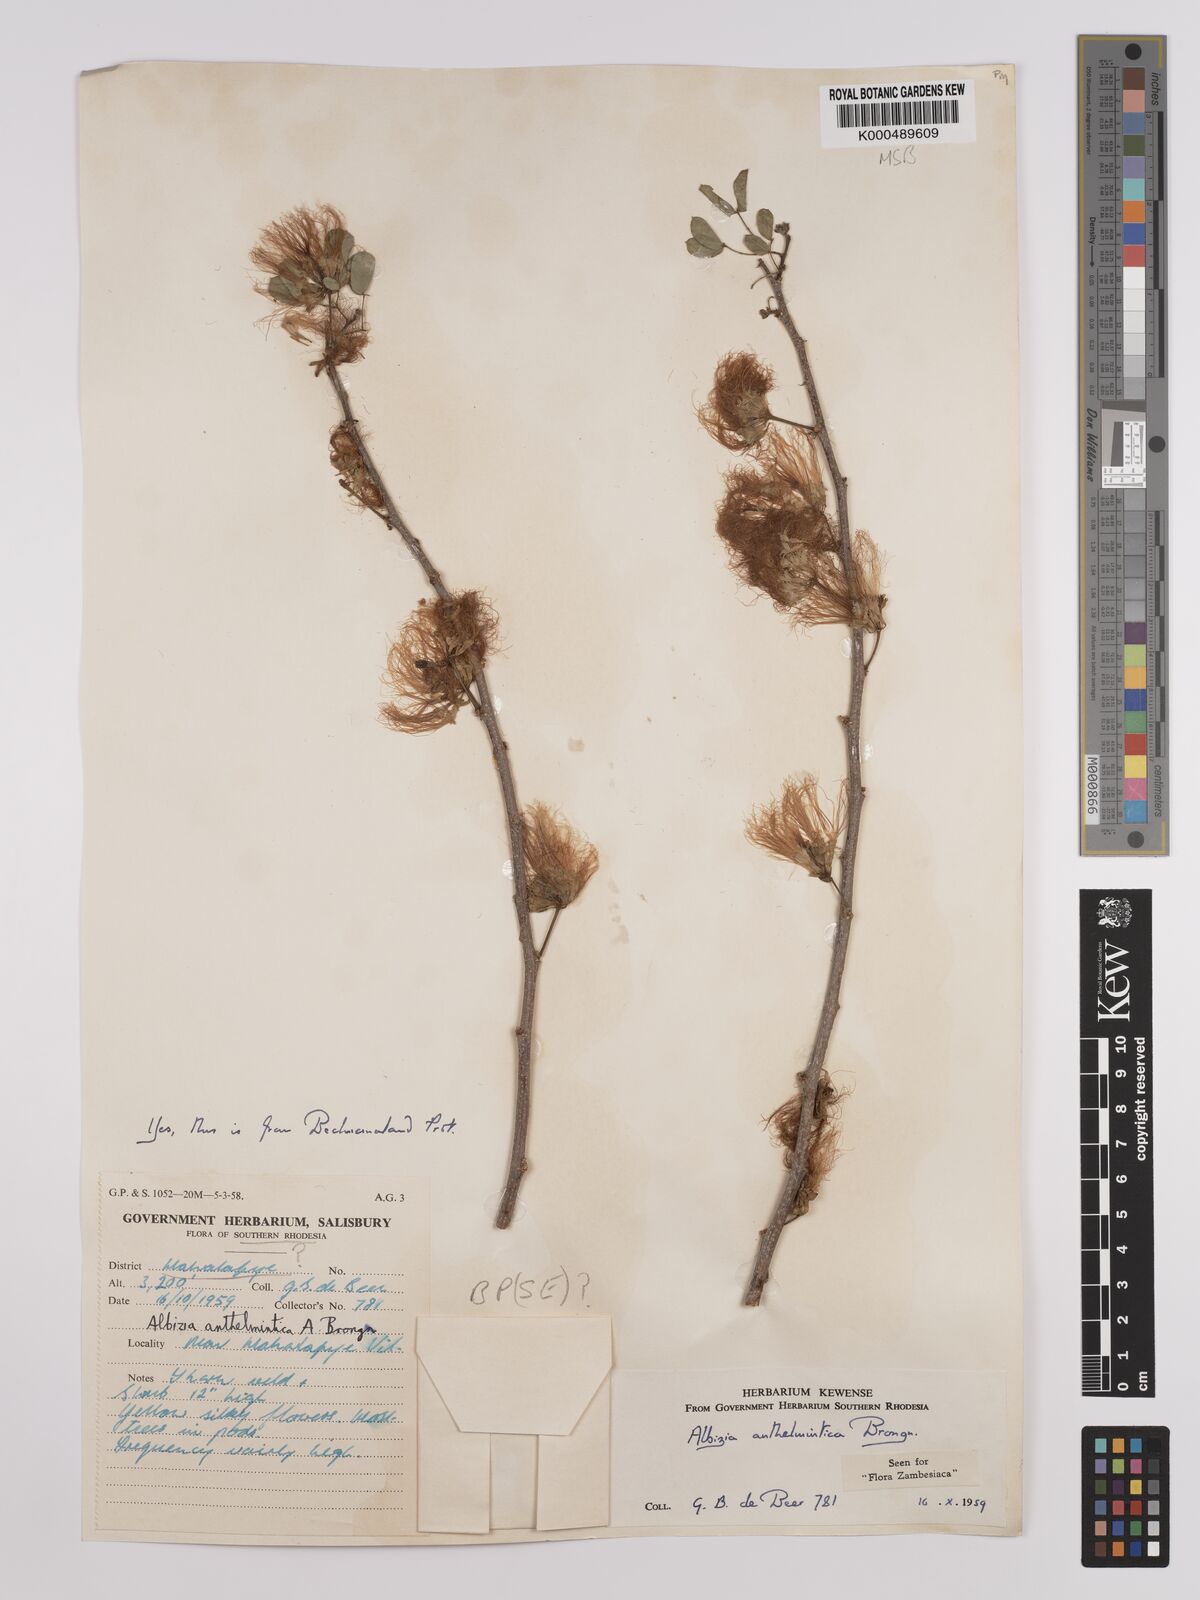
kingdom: Plantae
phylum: Tracheophyta
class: Magnoliopsida
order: Fabales
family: Fabaceae
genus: Albizia
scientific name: Albizia anthelmintica
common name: Worm-bark false-thorn
